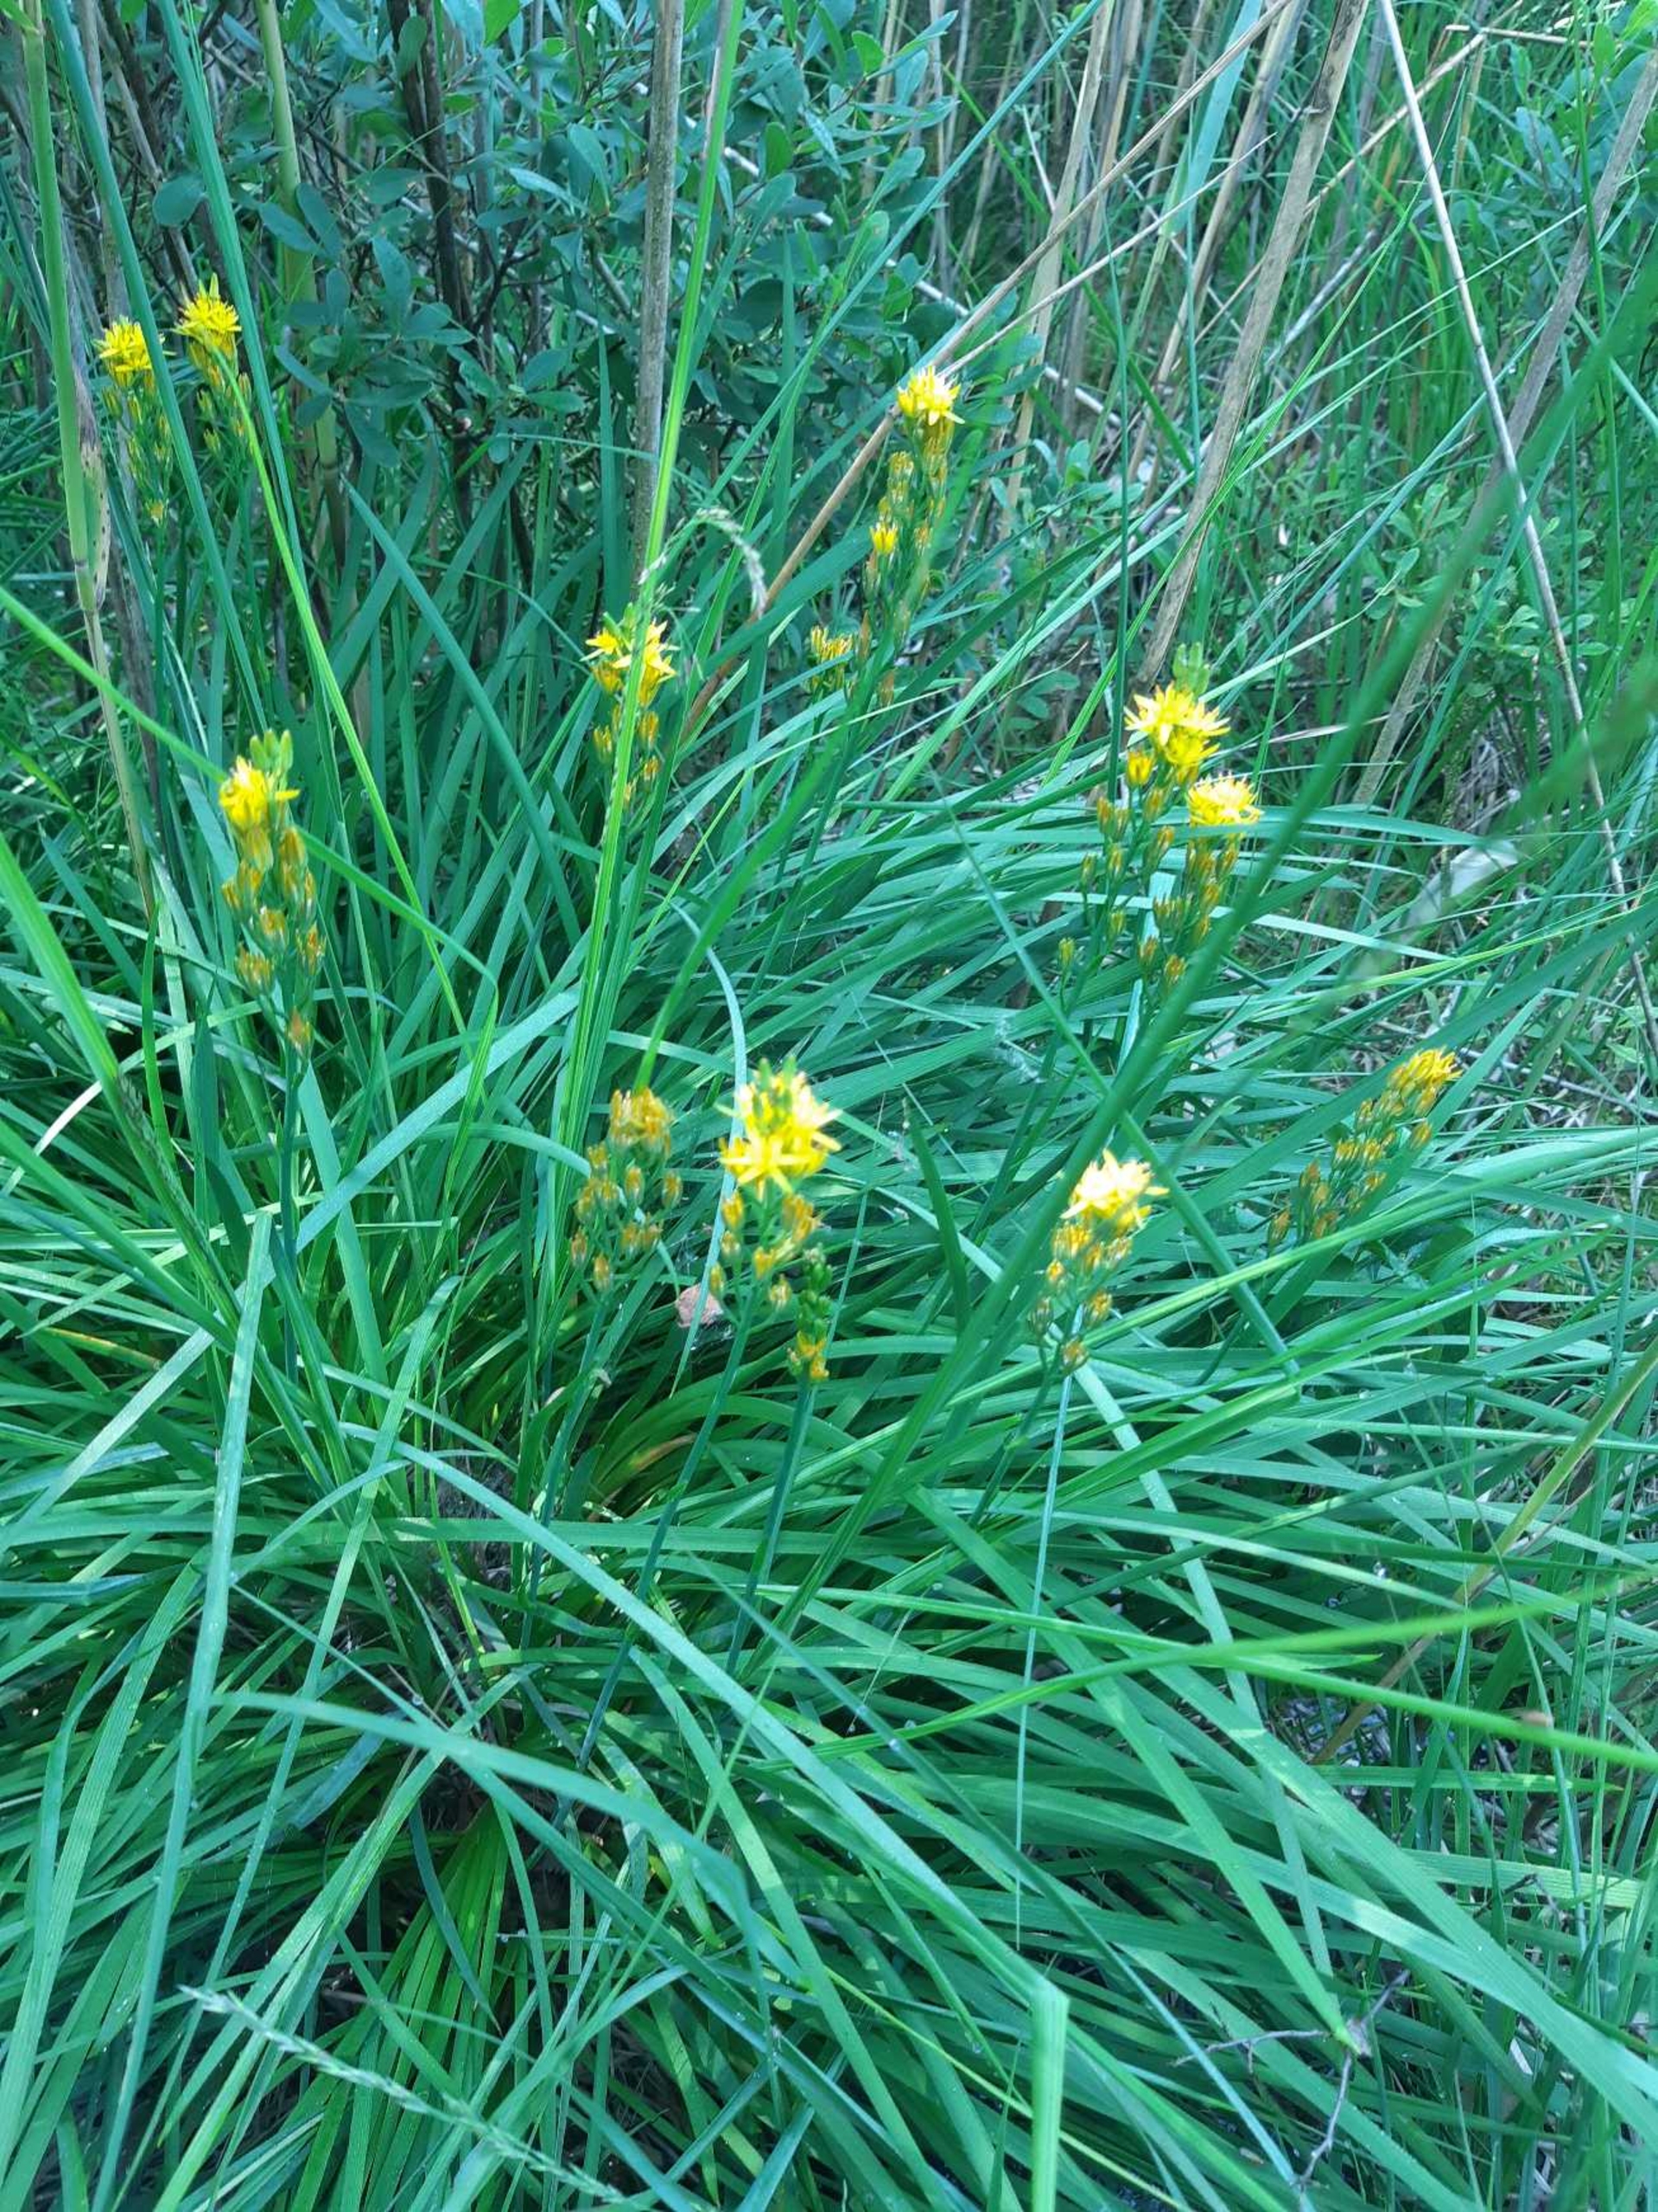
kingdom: Plantae
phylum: Tracheophyta
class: Liliopsida
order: Dioscoreales
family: Nartheciaceae
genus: Narthecium
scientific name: Narthecium ossifragum
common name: Benbræk
